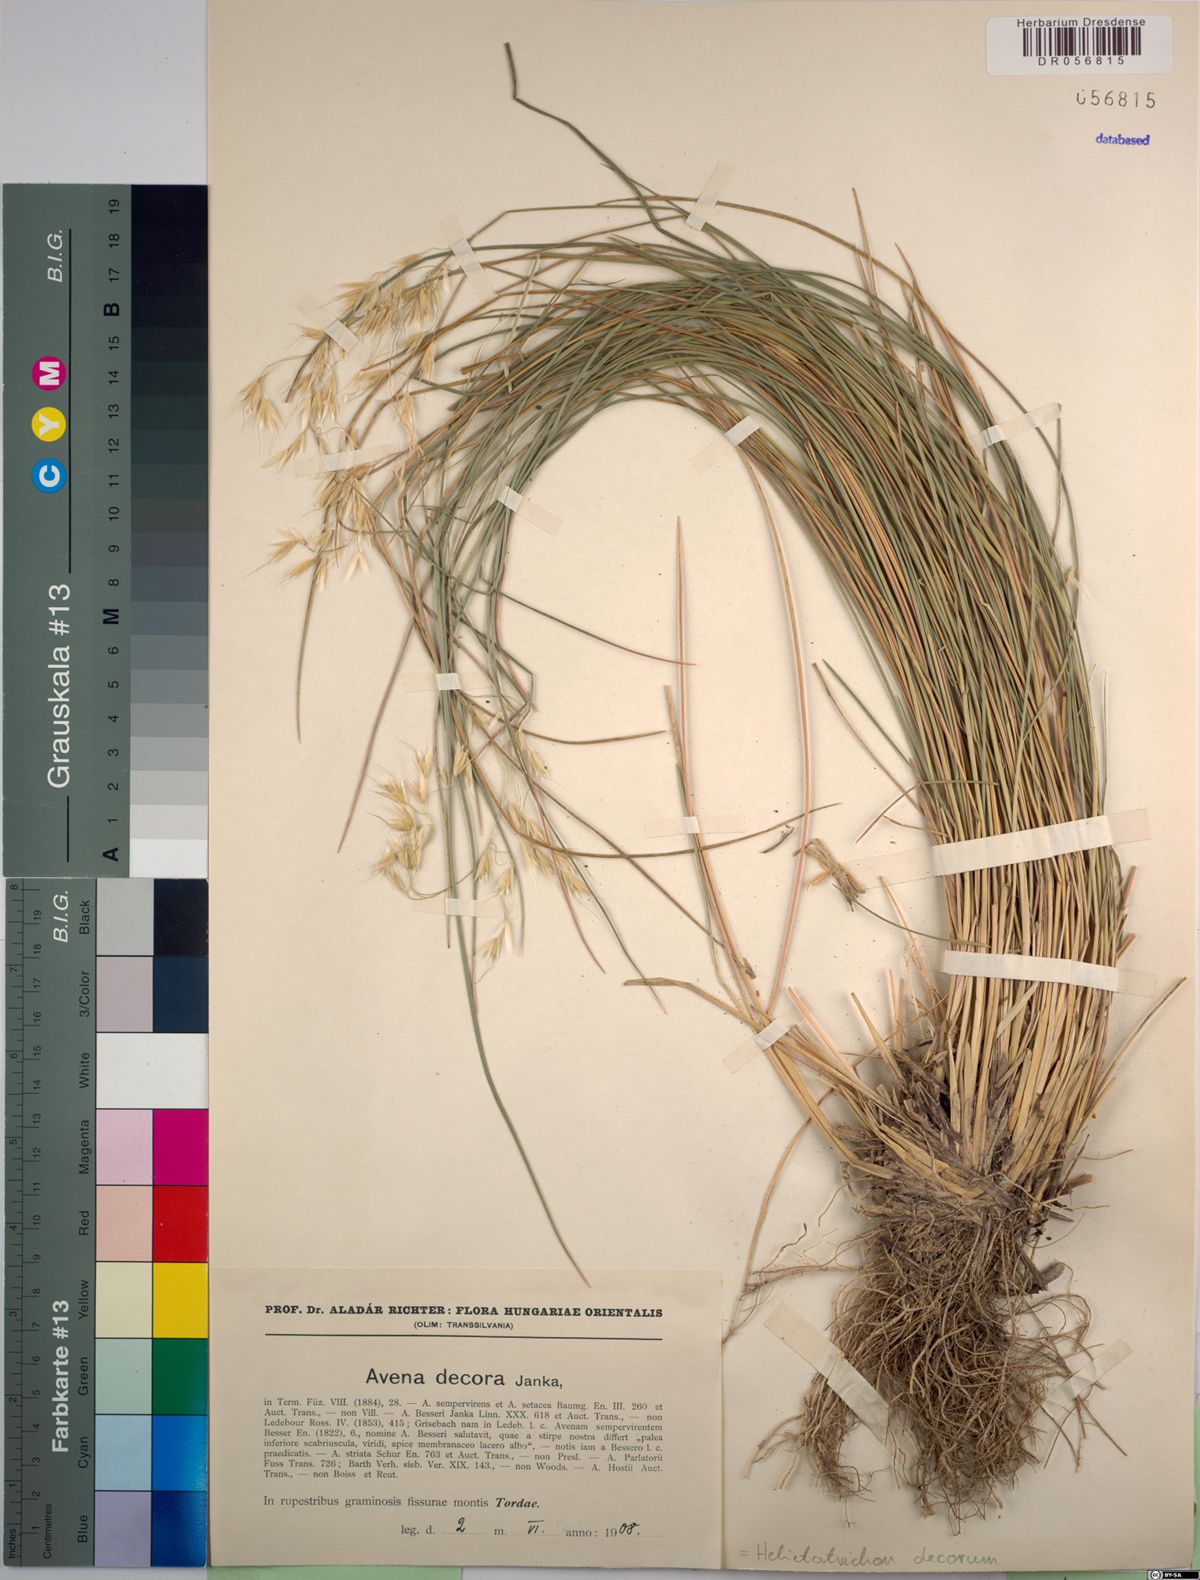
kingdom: Plantae
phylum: Tracheophyta
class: Liliopsida
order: Poales
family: Poaceae
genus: Helictotrichon
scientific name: Helictotrichon decorum
